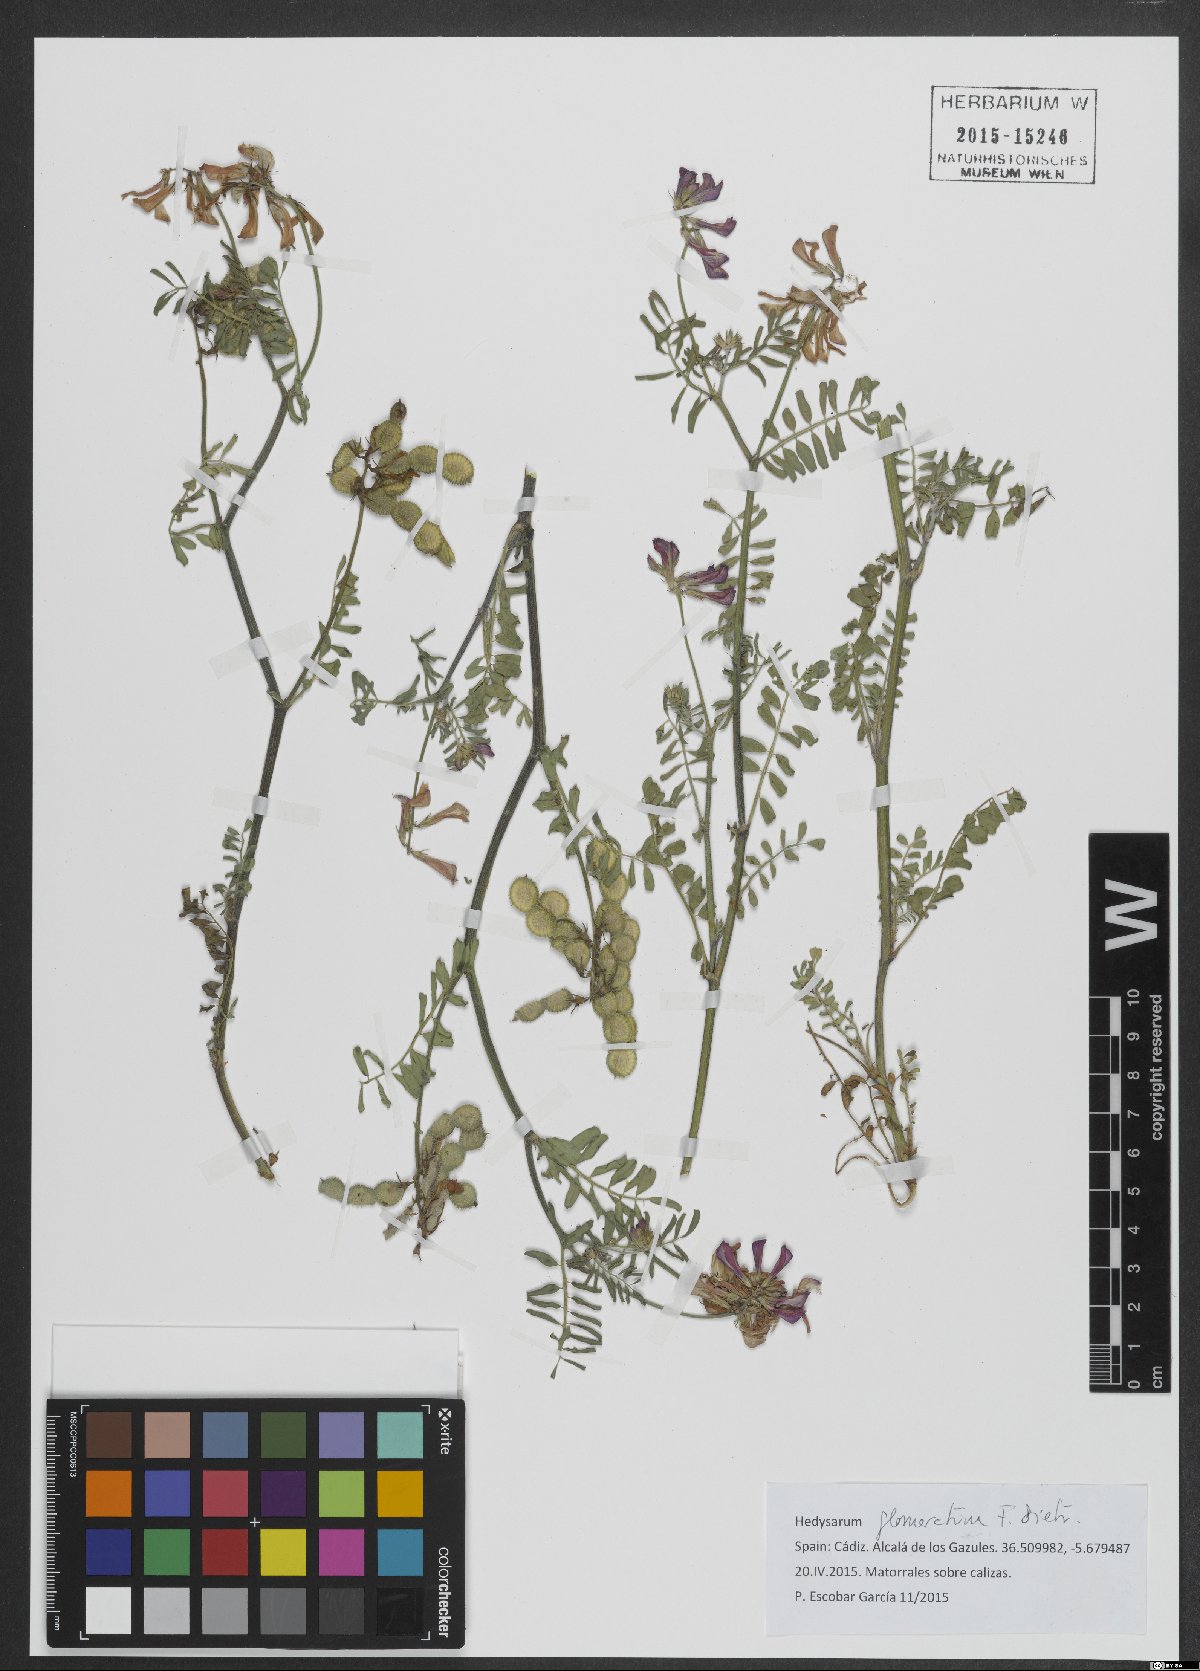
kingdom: Plantae
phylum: Tracheophyta
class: Magnoliopsida
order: Fabales
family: Fabaceae
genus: Sulla
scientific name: Sulla glomerata
